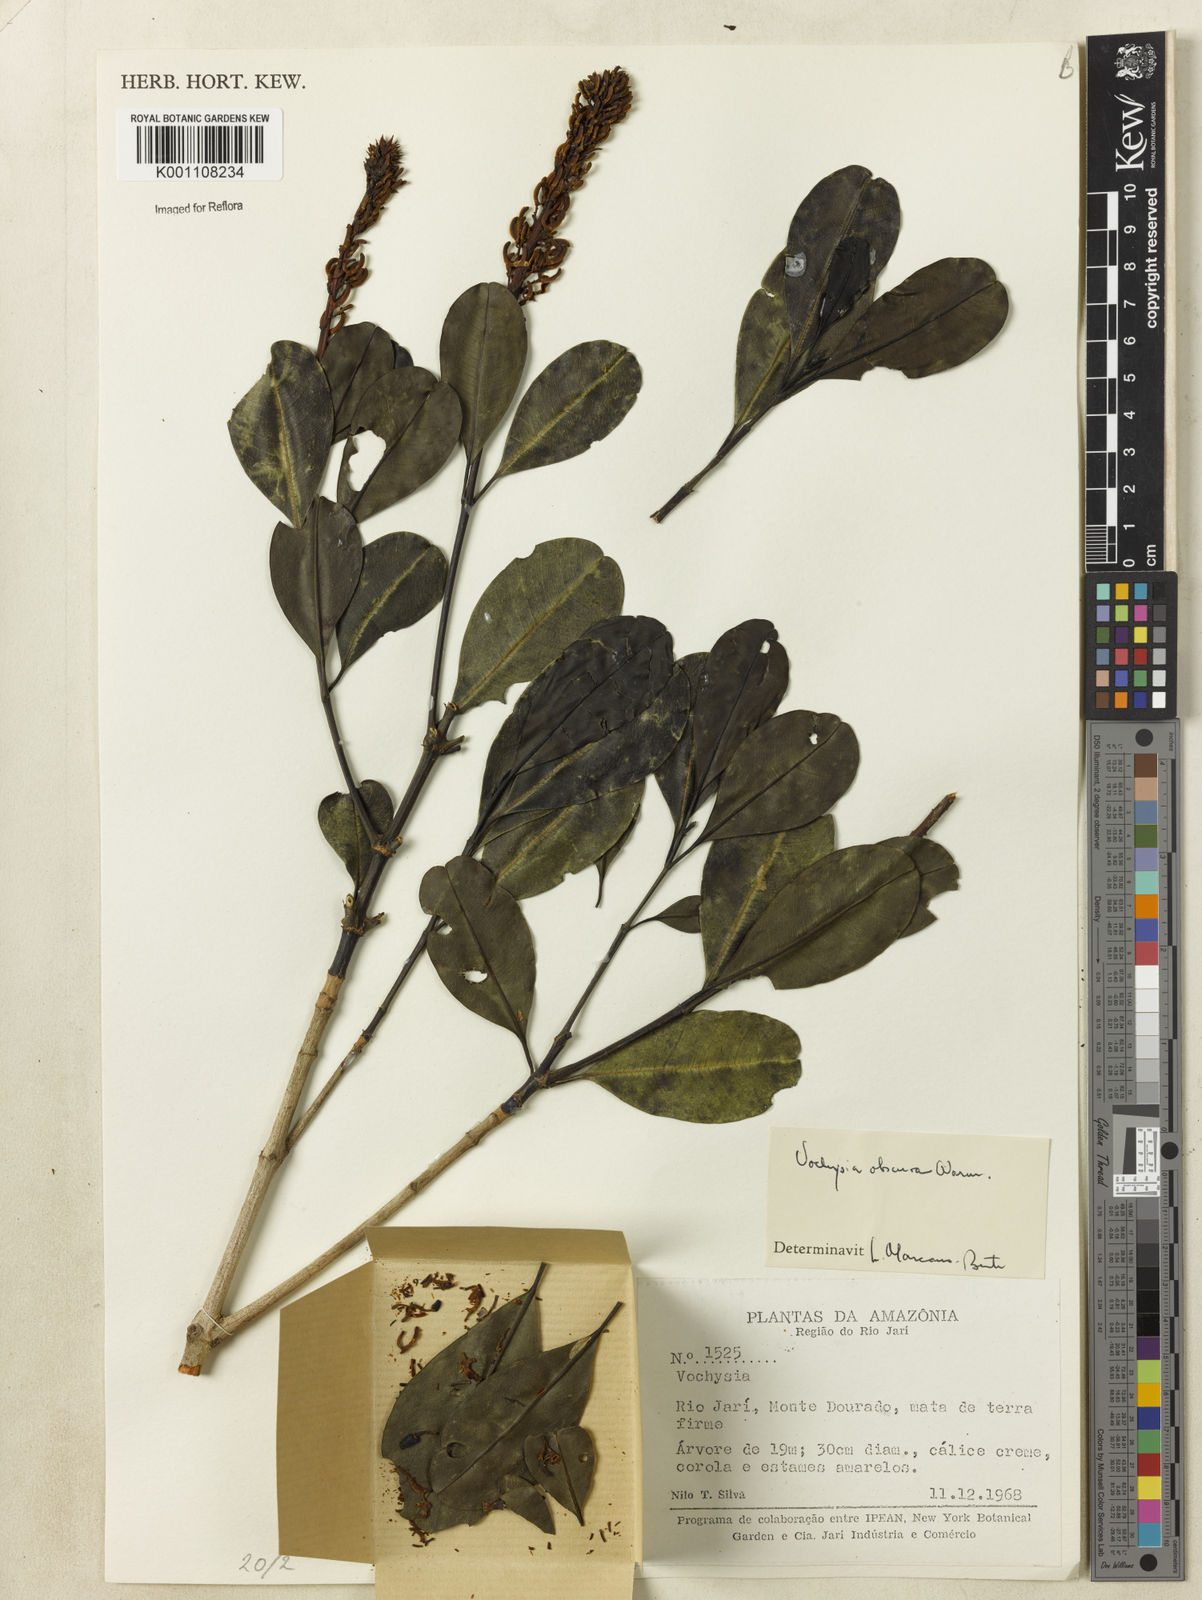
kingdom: Plantae
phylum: Tracheophyta
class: Magnoliopsida
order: Myrtales
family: Vochysiaceae
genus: Vochysia
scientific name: Vochysia obscura
